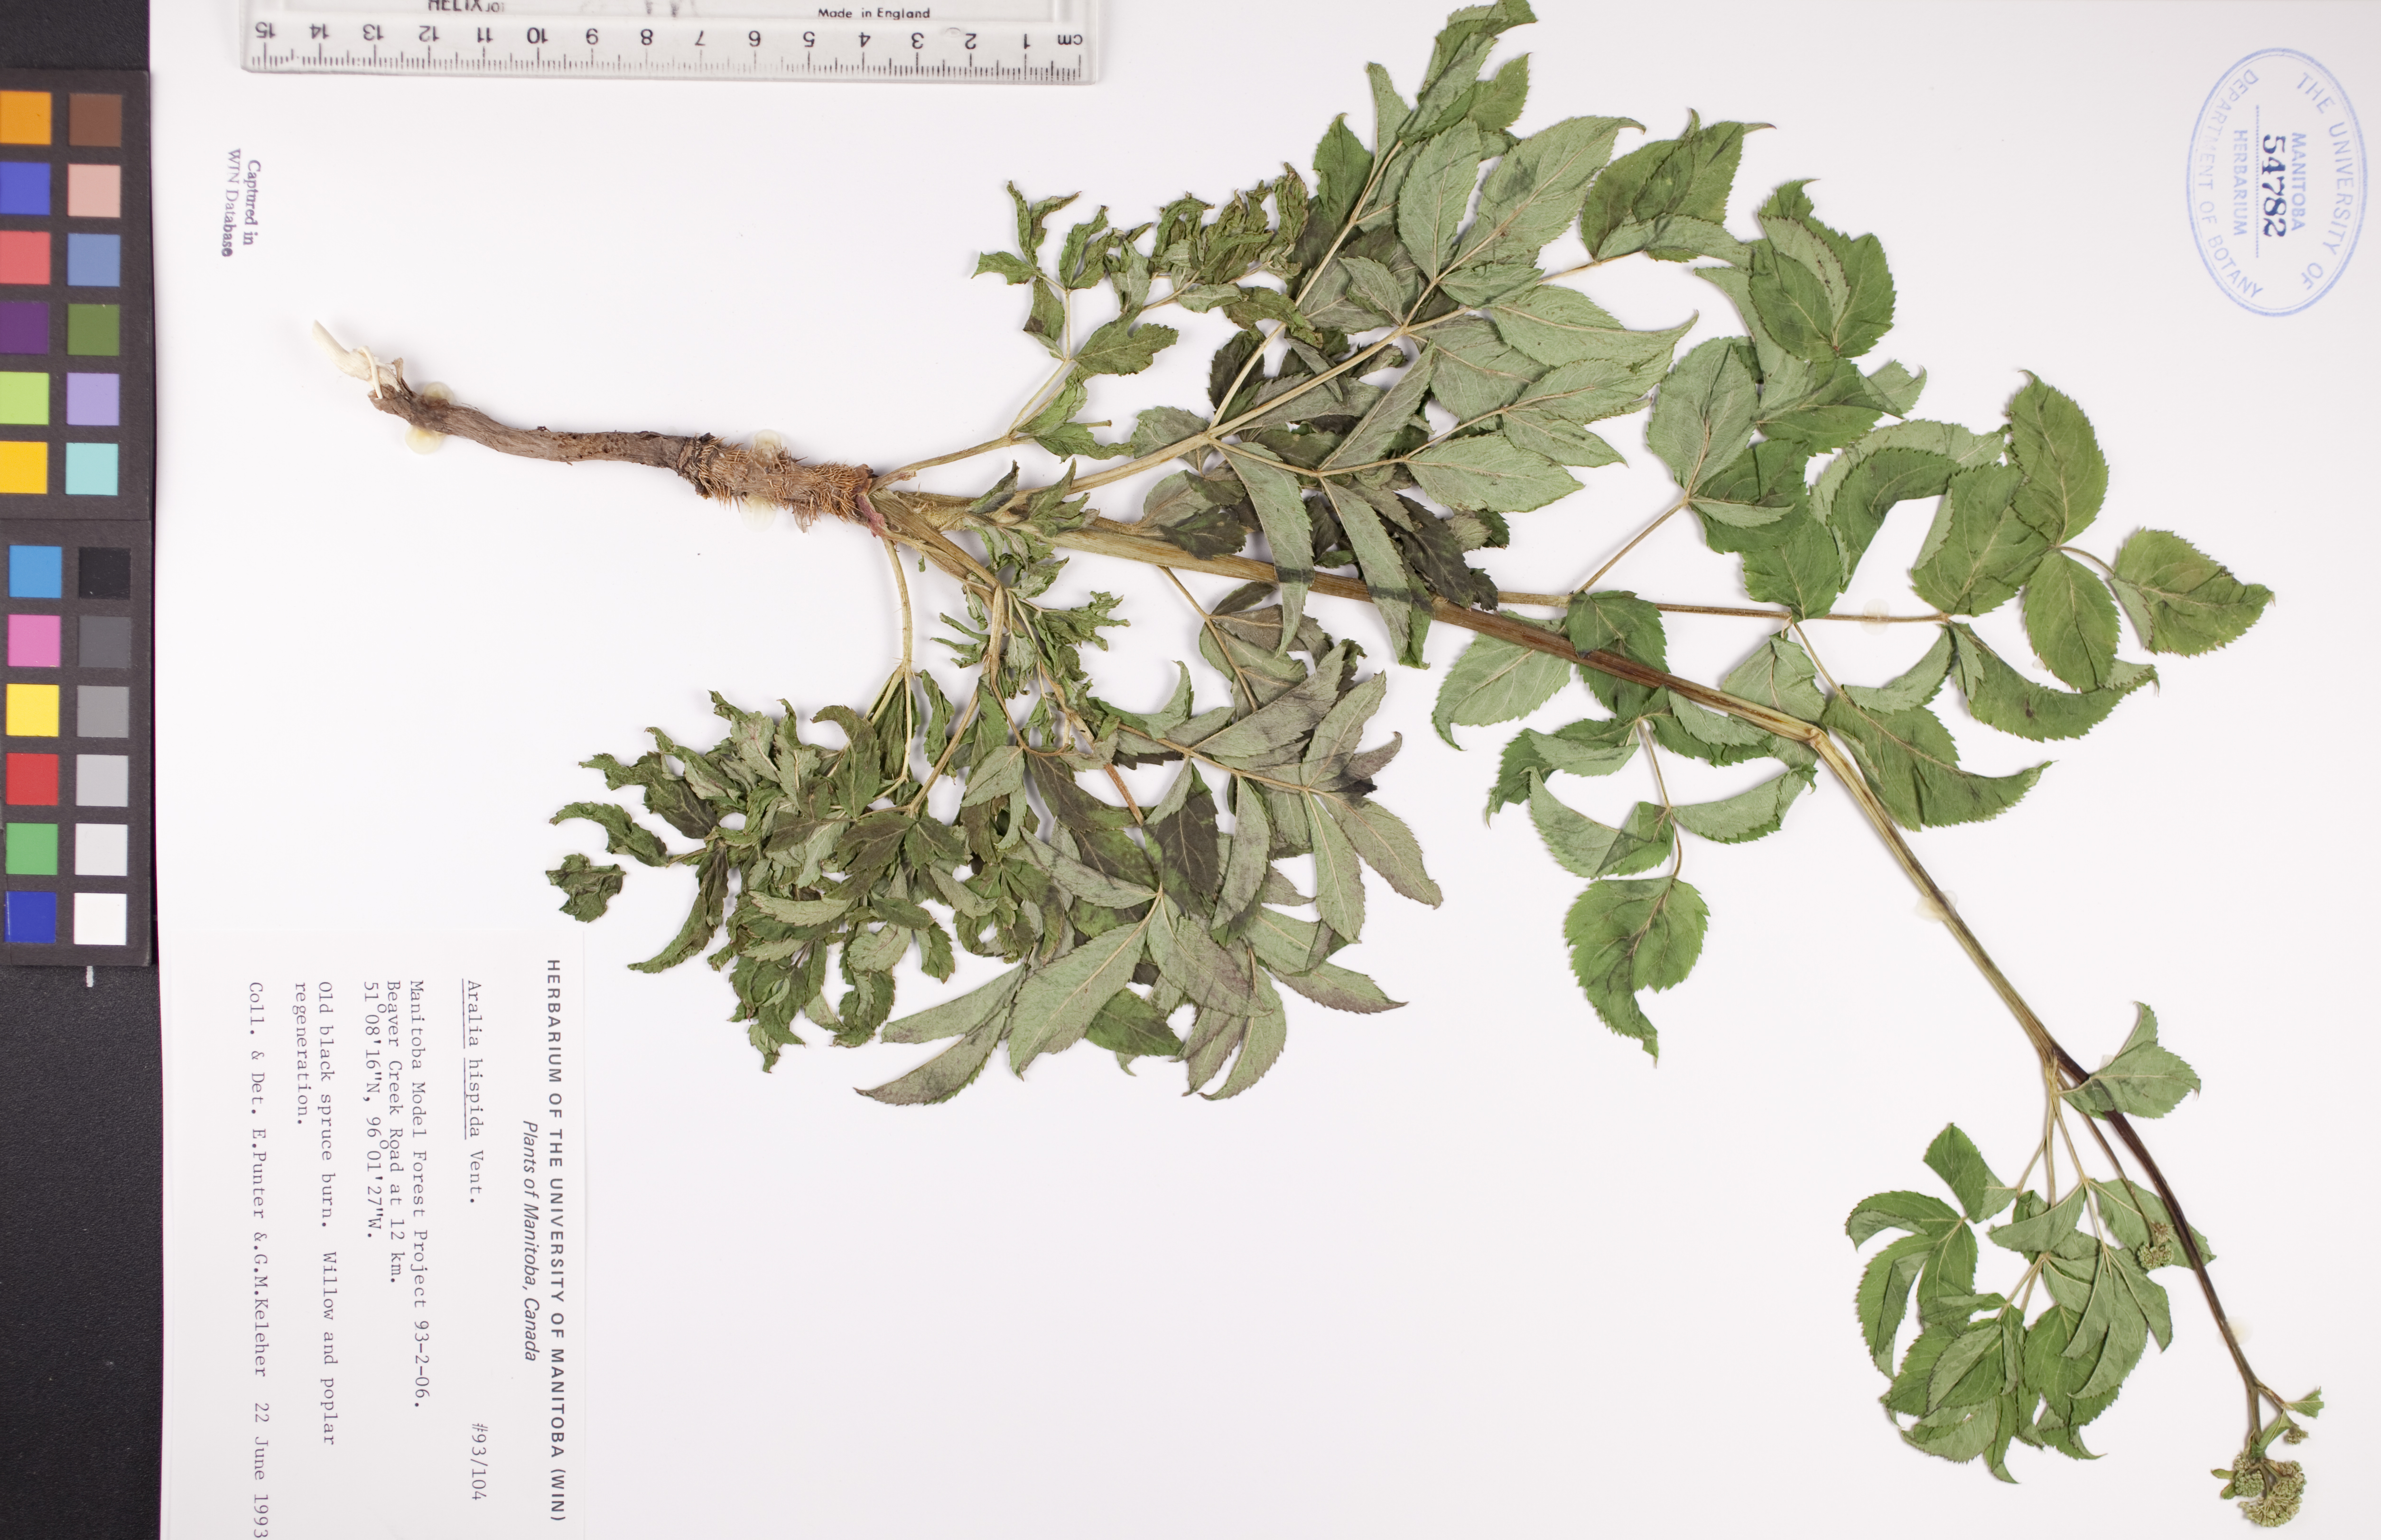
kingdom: Plantae
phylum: Tracheophyta
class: Magnoliopsida
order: Apiales
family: Araliaceae
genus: Aralia
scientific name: Aralia hispida
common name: Bristly sarsaparilla
